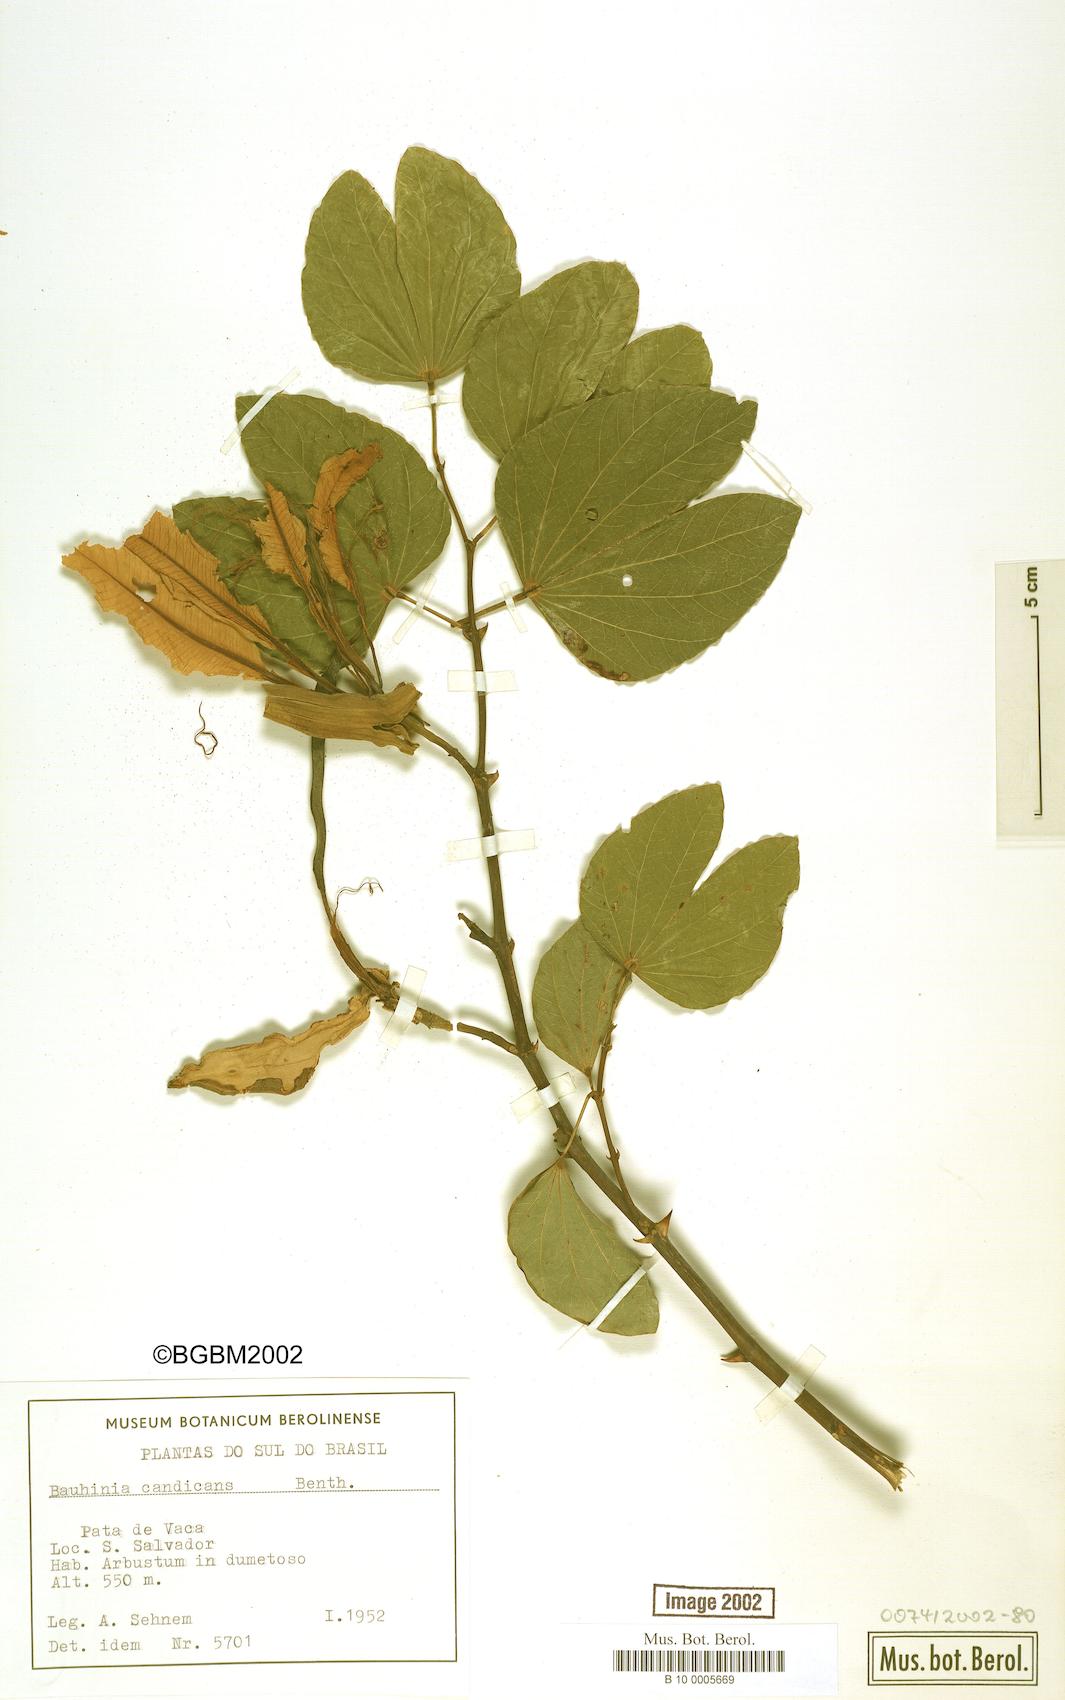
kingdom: Plantae
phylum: Tracheophyta
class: Magnoliopsida
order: Fabales
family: Fabaceae
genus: Bauhinia
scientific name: Bauhinia forficata
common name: Orchid tree
